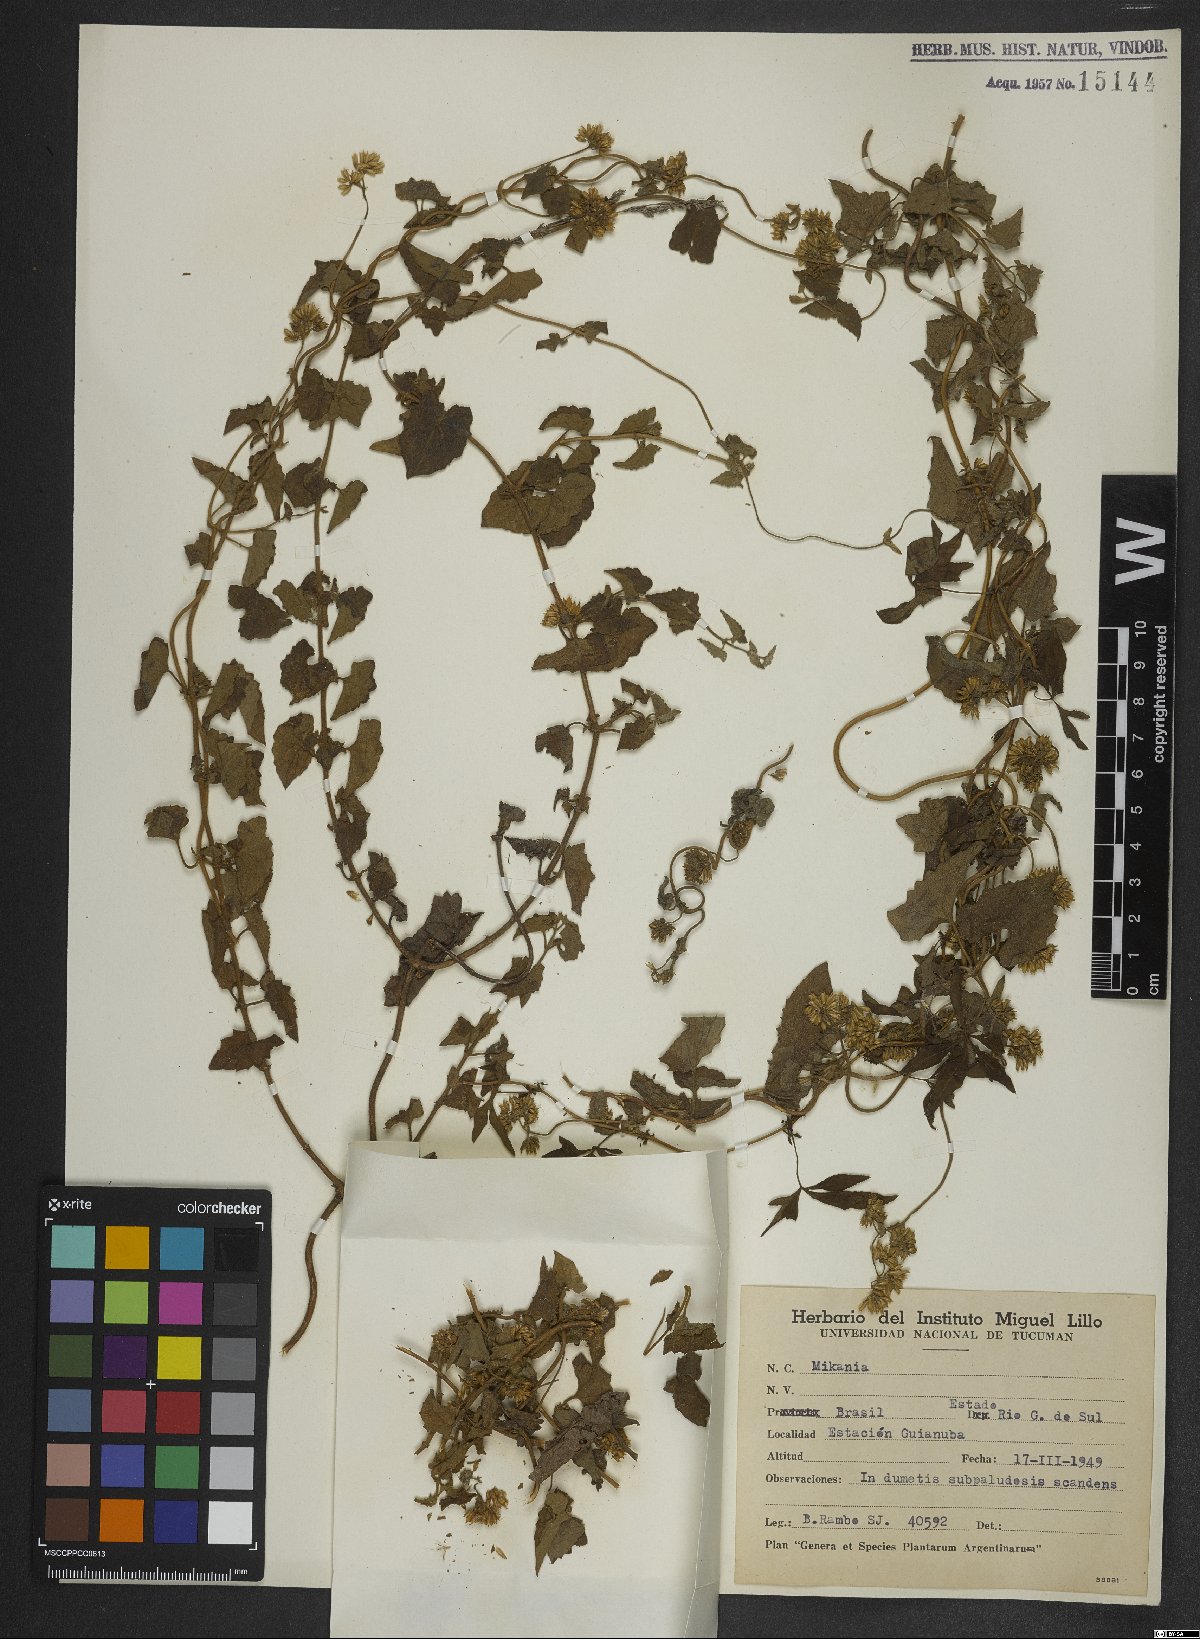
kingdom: Plantae
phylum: Tracheophyta
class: Magnoliopsida
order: Asterales
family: Asteraceae
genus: Mikania
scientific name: Mikania
